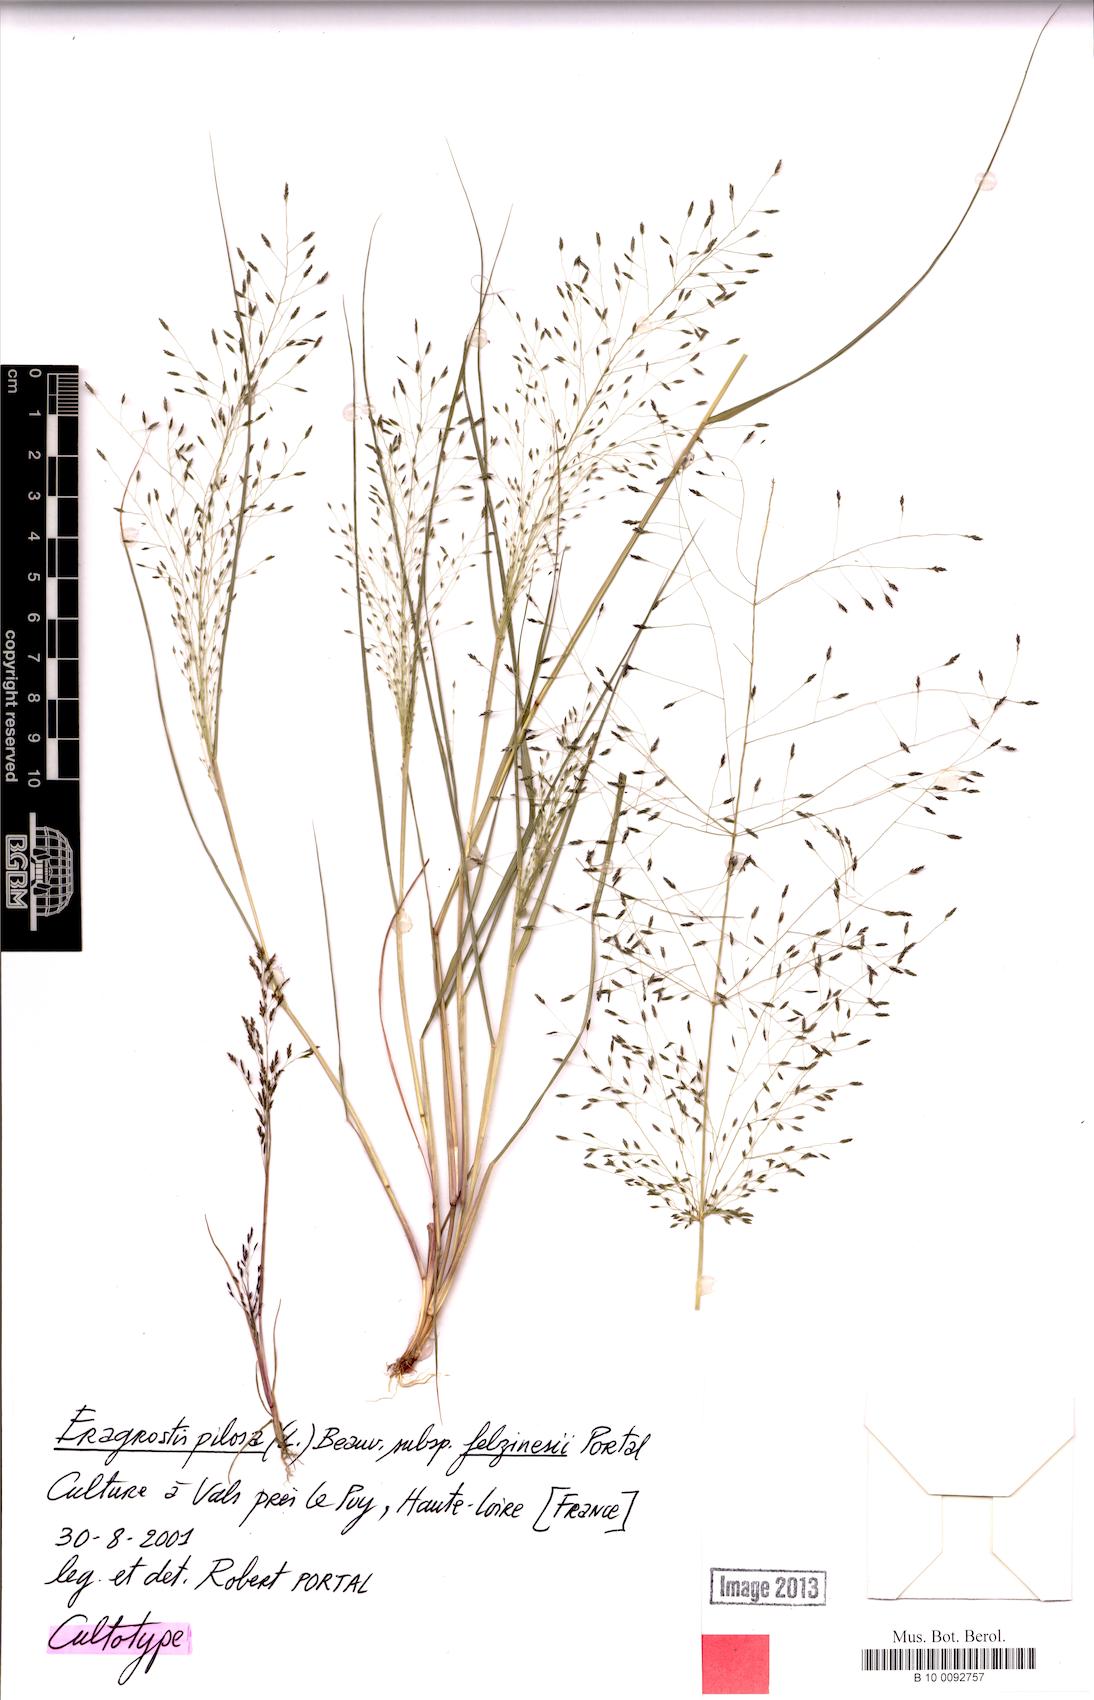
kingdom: Plantae
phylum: Tracheophyta
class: Liliopsida
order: Poales
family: Poaceae
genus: Eragrostis
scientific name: Eragrostis pectinacea
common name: Tufted lovegrass
